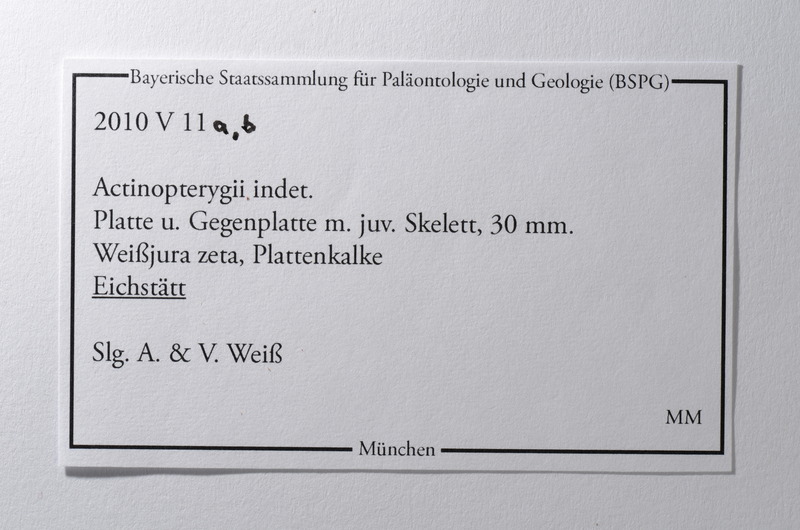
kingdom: Animalia
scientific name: Animalia
